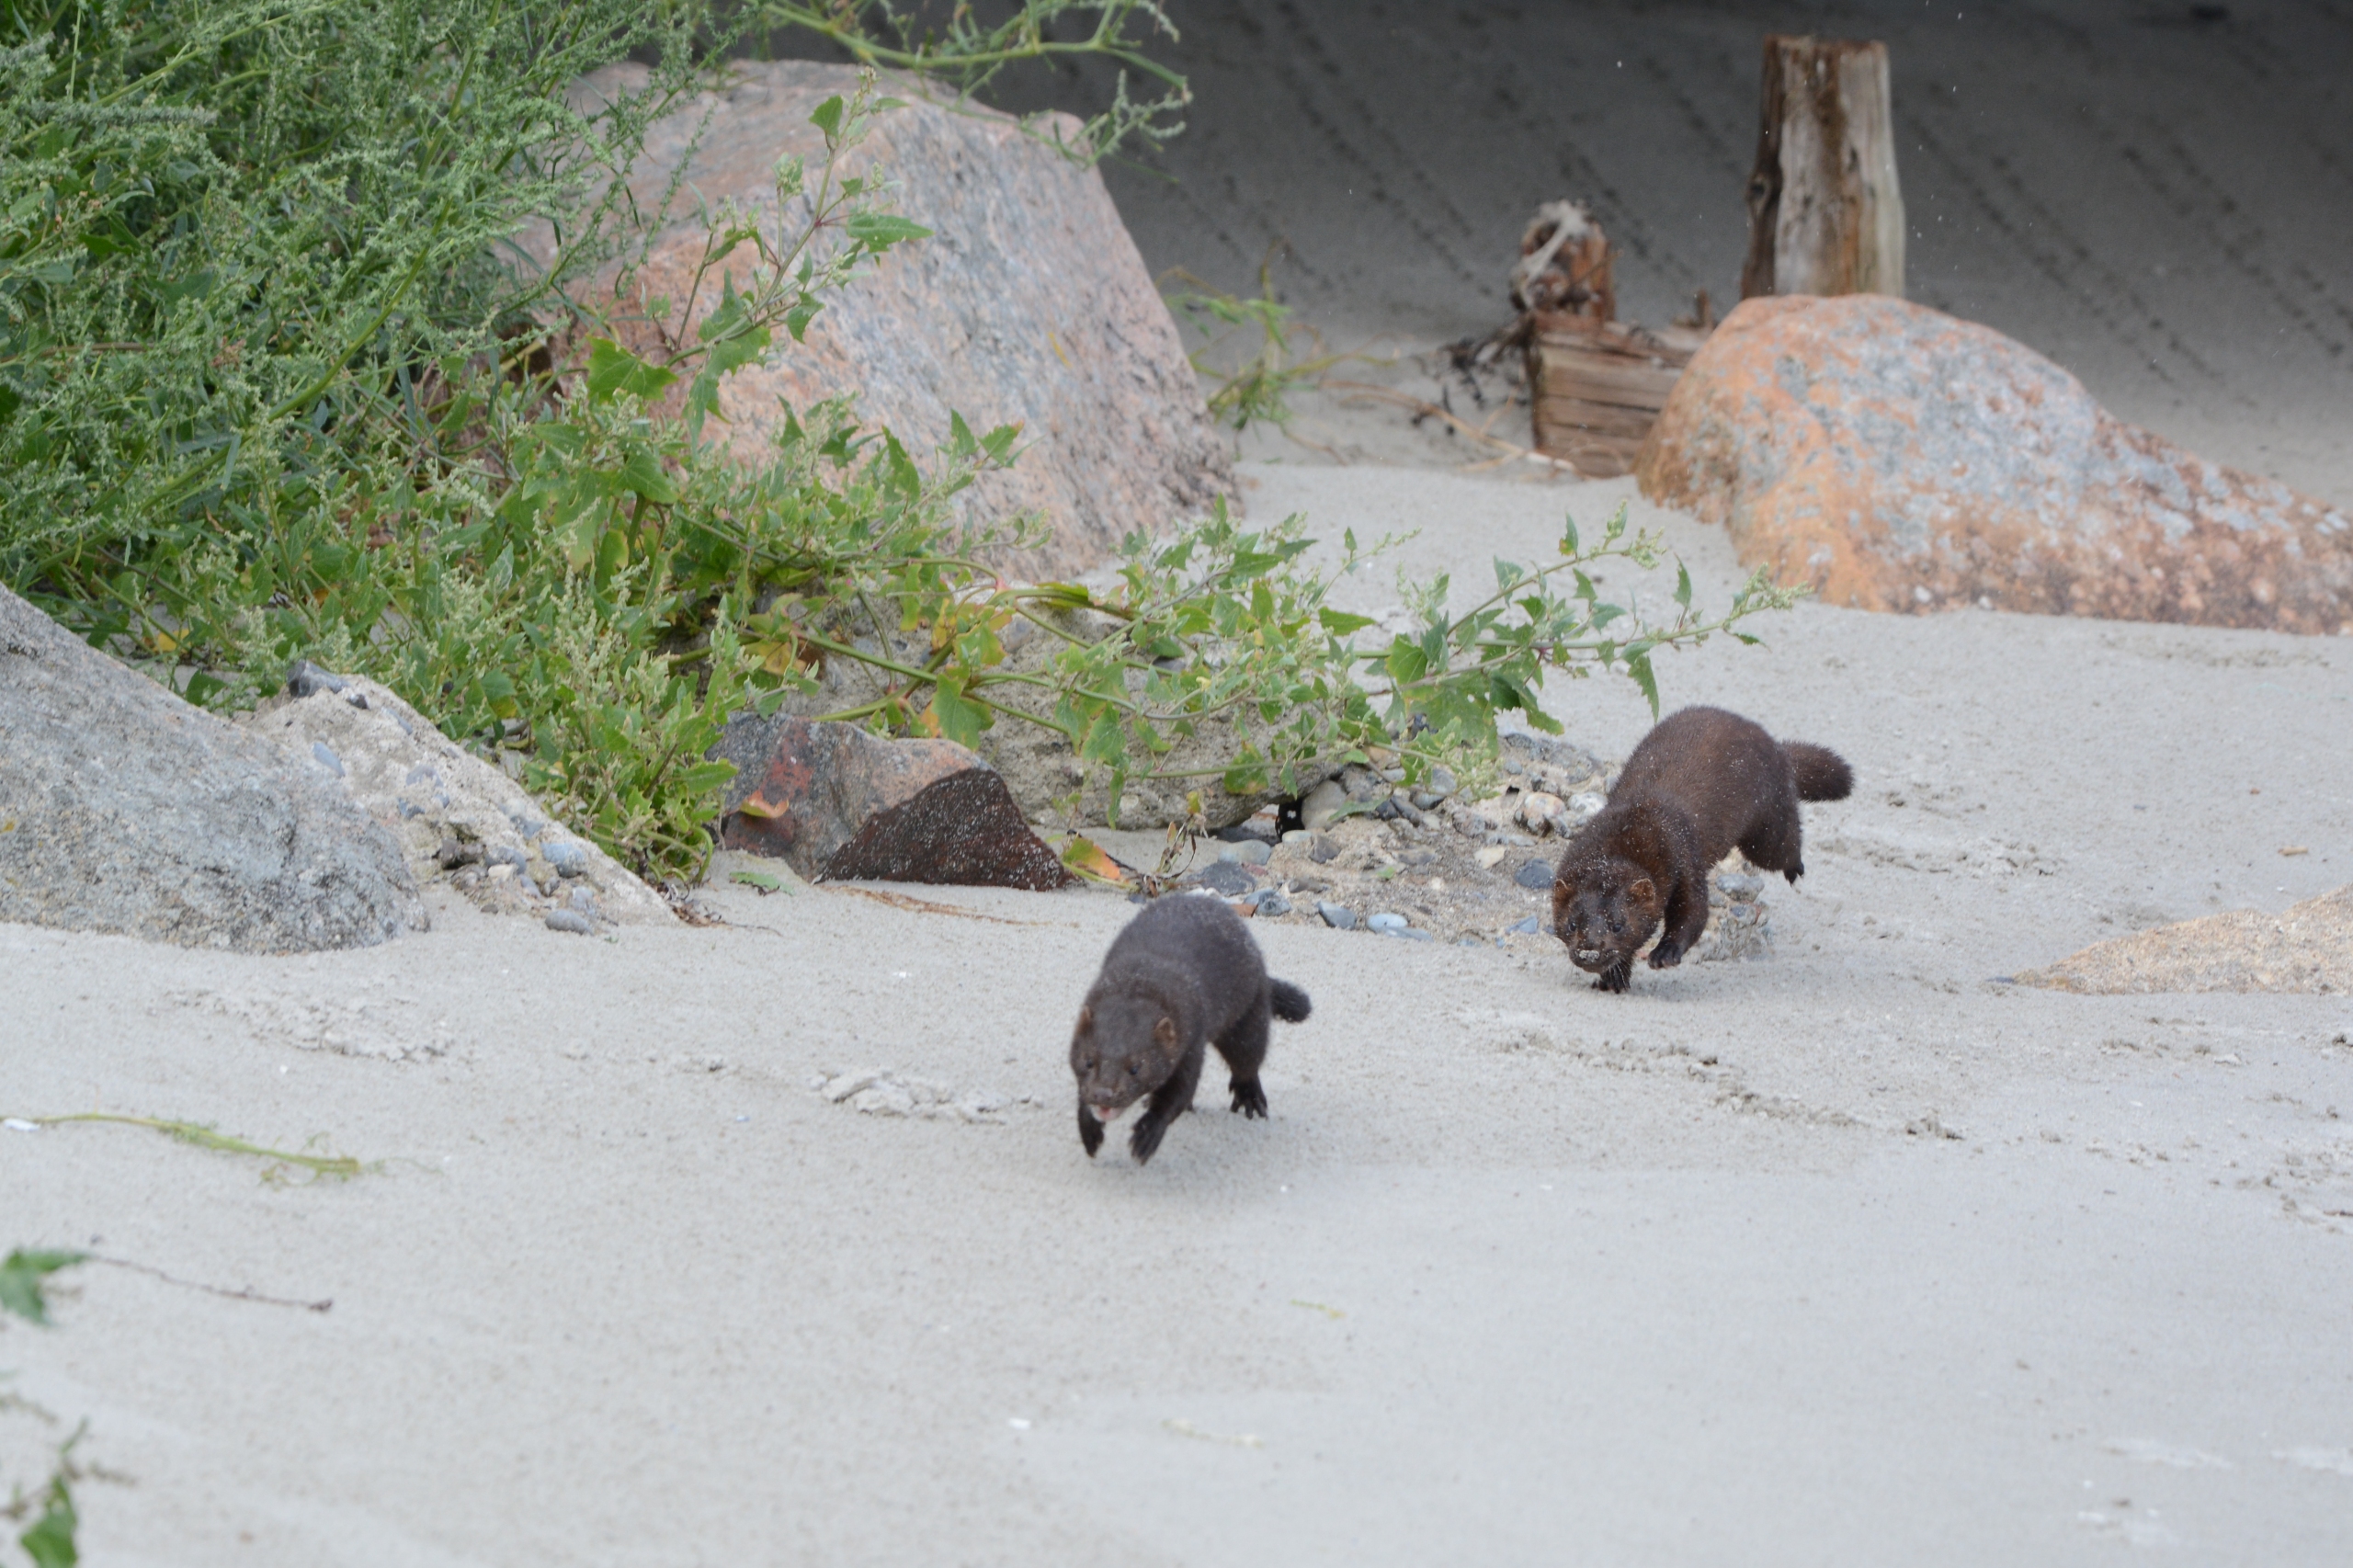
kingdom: Animalia
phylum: Chordata
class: Mammalia
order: Carnivora
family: Mustelidae
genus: Mustela
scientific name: Mustela vison
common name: Mink
